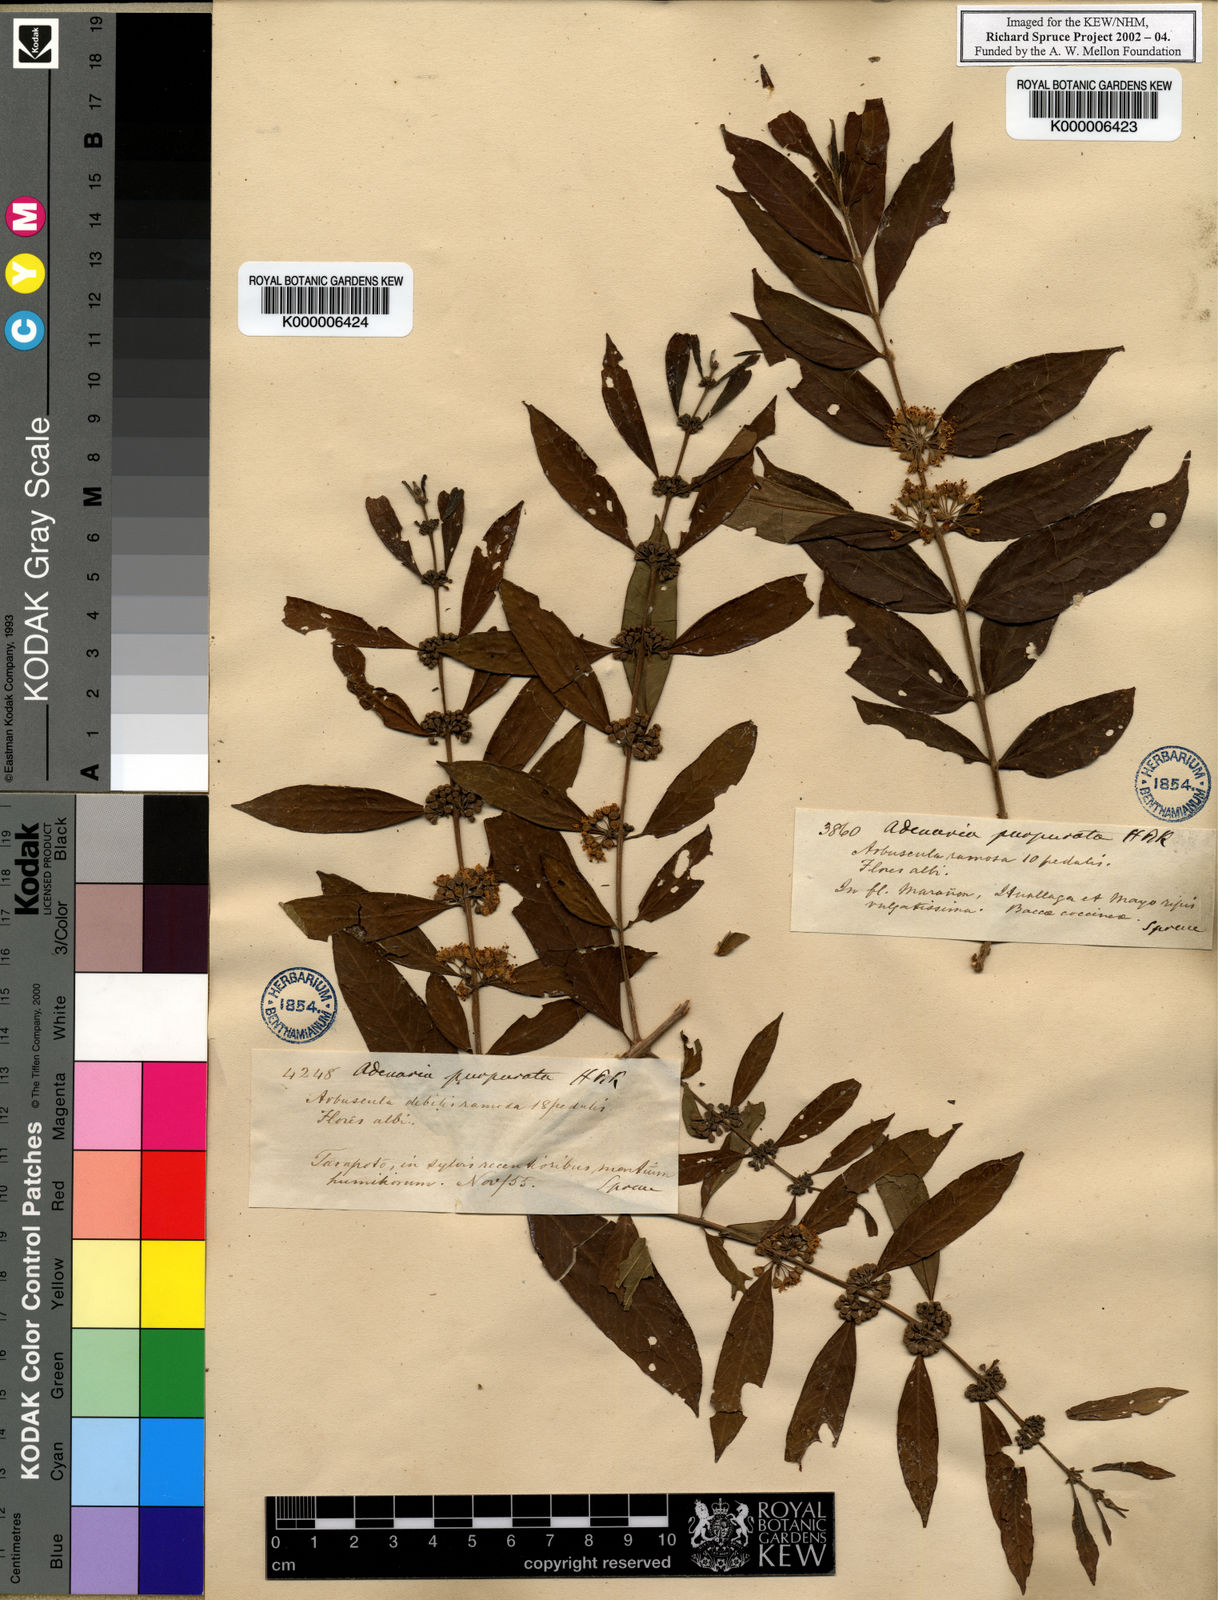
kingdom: Plantae
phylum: Tracheophyta
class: Magnoliopsida
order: Myrtales
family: Lythraceae
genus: Adenaria
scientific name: Adenaria floribunda
